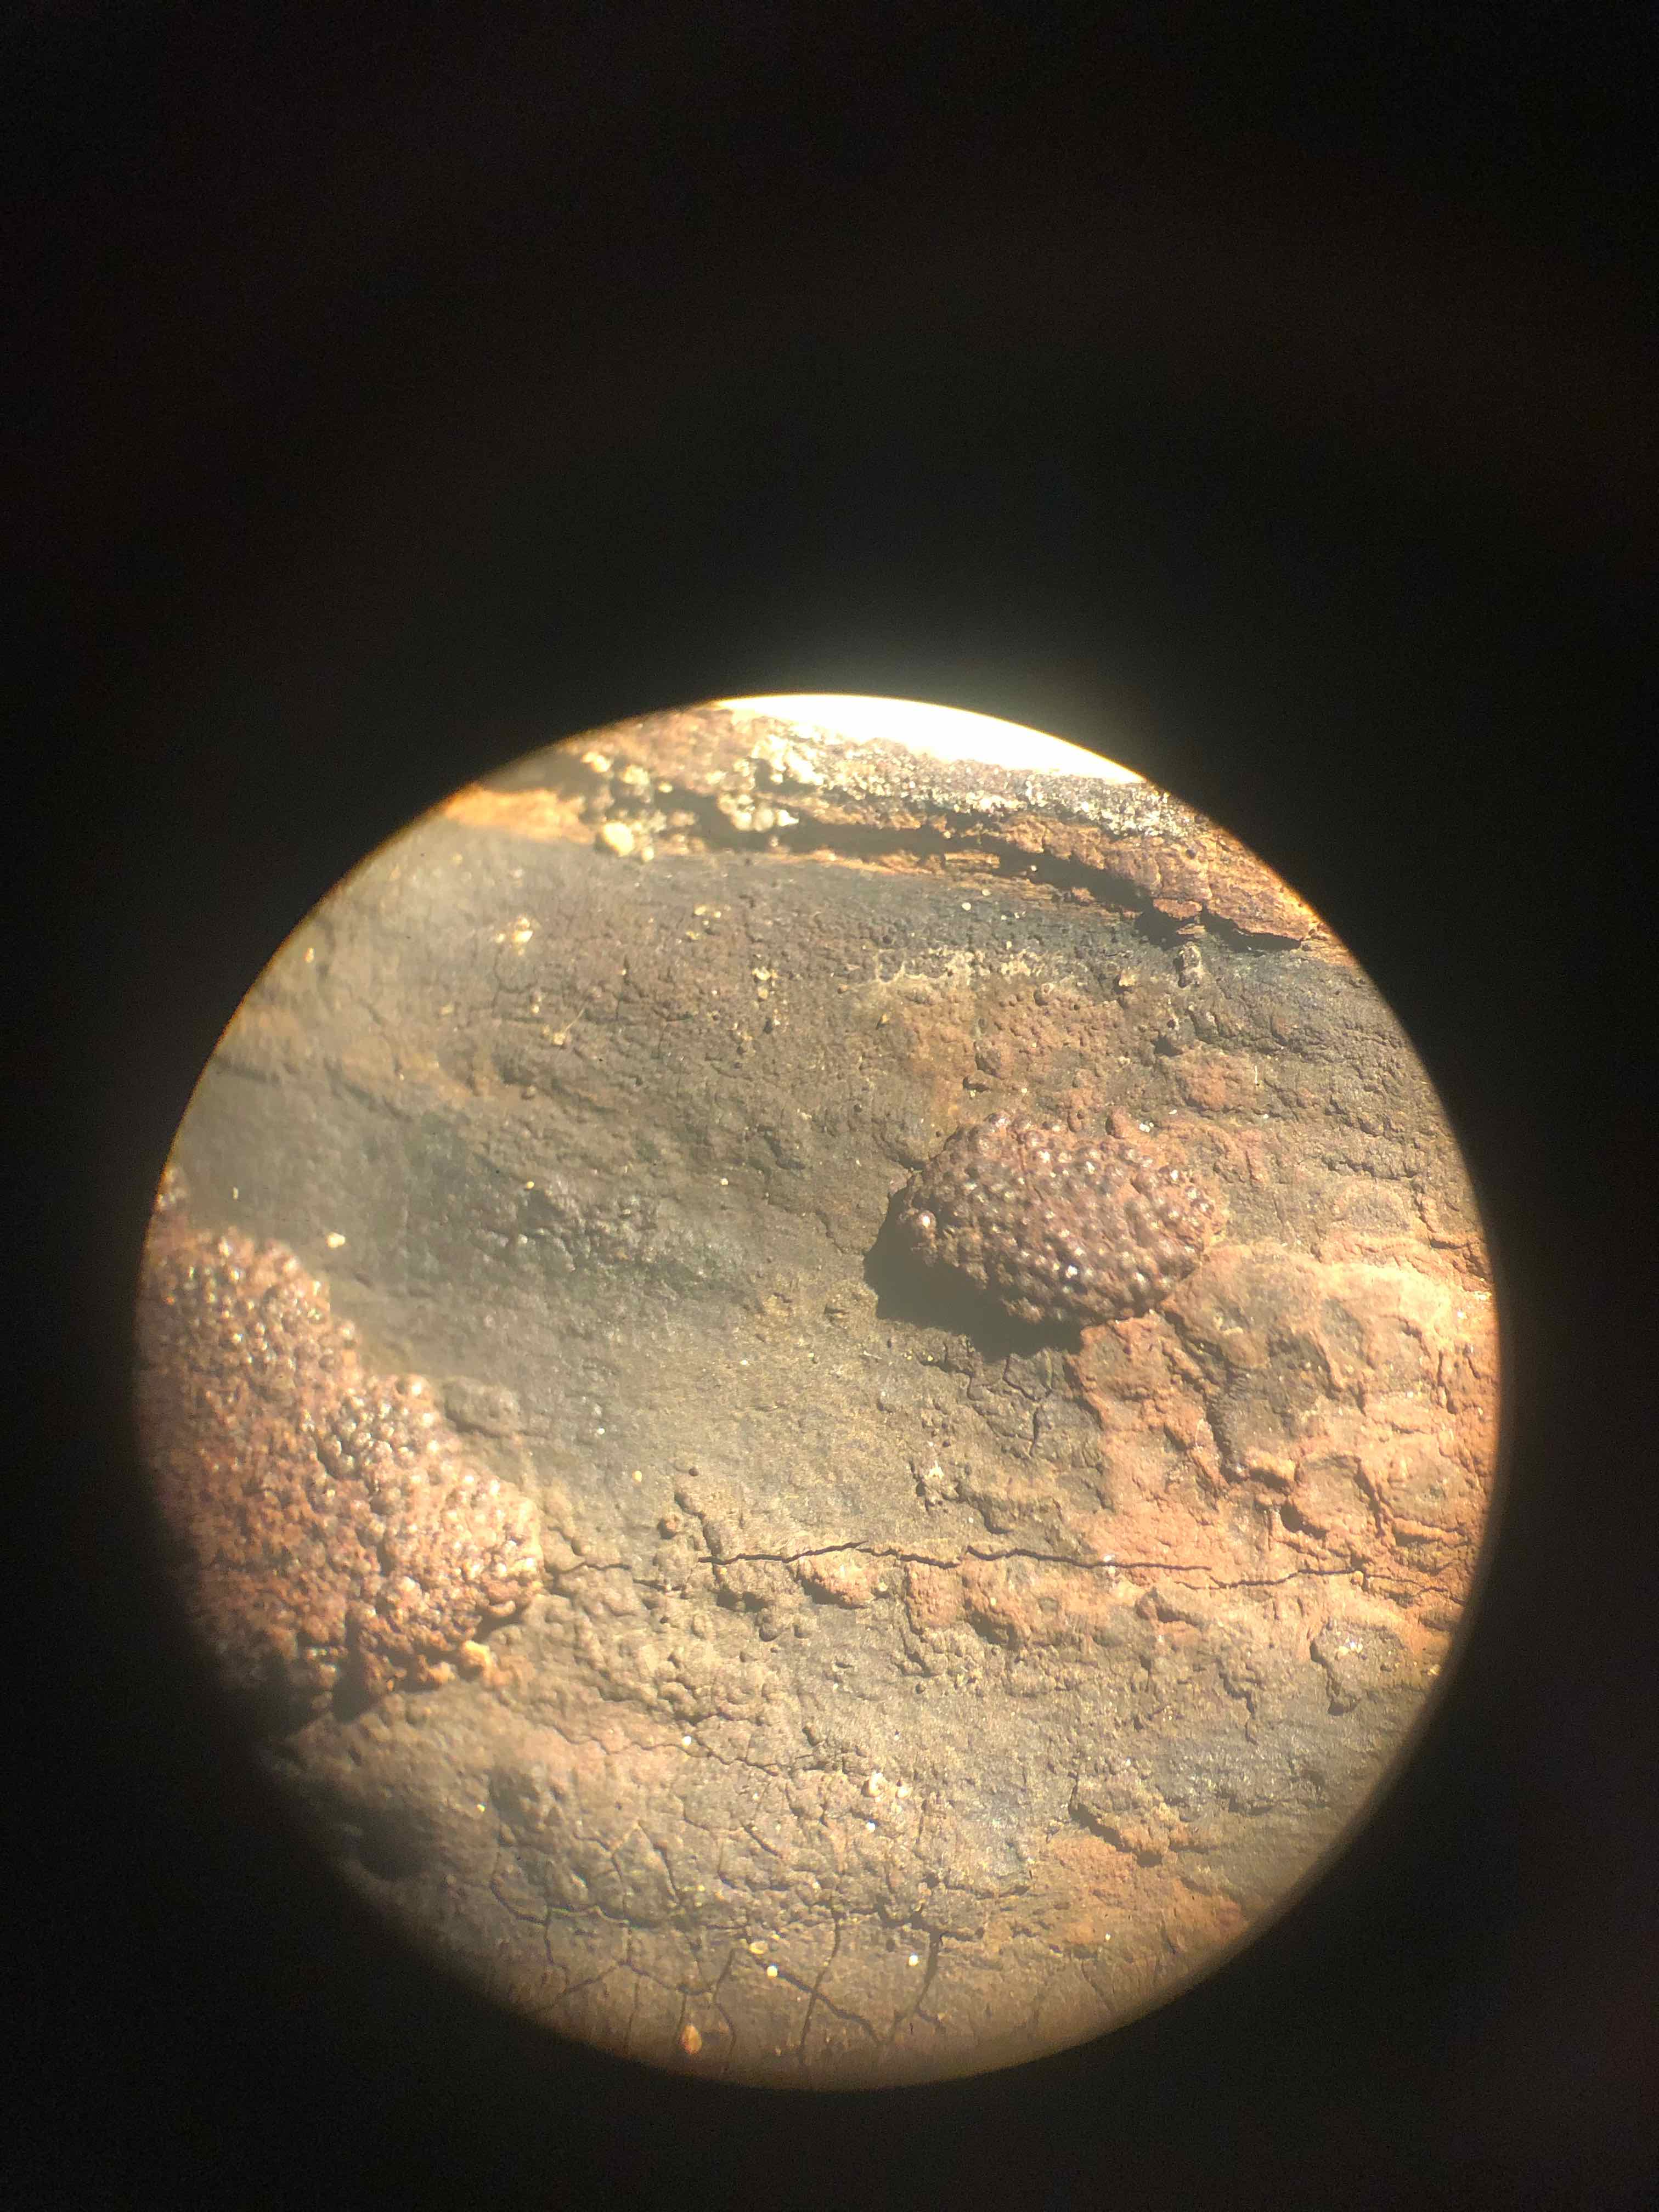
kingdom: Fungi
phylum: Ascomycota
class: Sordariomycetes
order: Xylariales
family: Hypoxylaceae
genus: Hypoxylon
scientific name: Hypoxylon macrocarpum
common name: skorpe-kulbær
